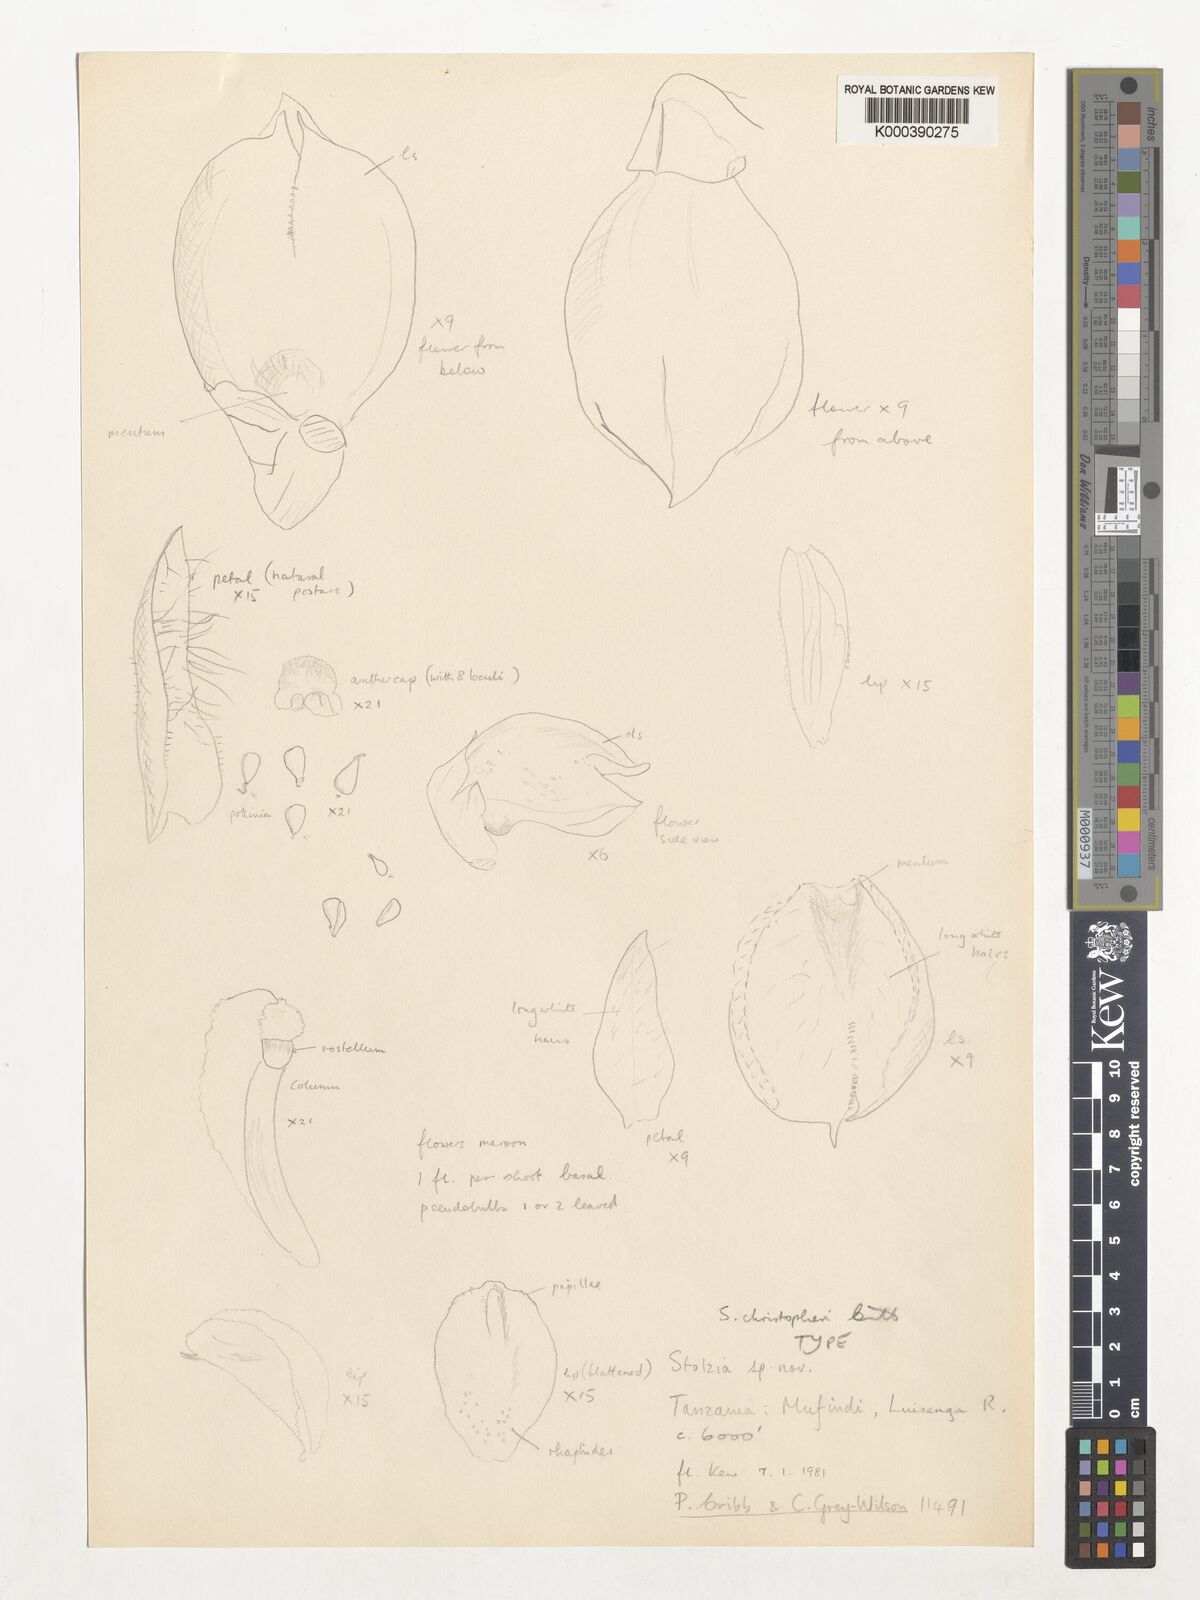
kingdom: Plantae
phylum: Tracheophyta
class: Liliopsida
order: Asparagales
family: Orchidaceae
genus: Porpax
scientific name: Porpax christopheri
